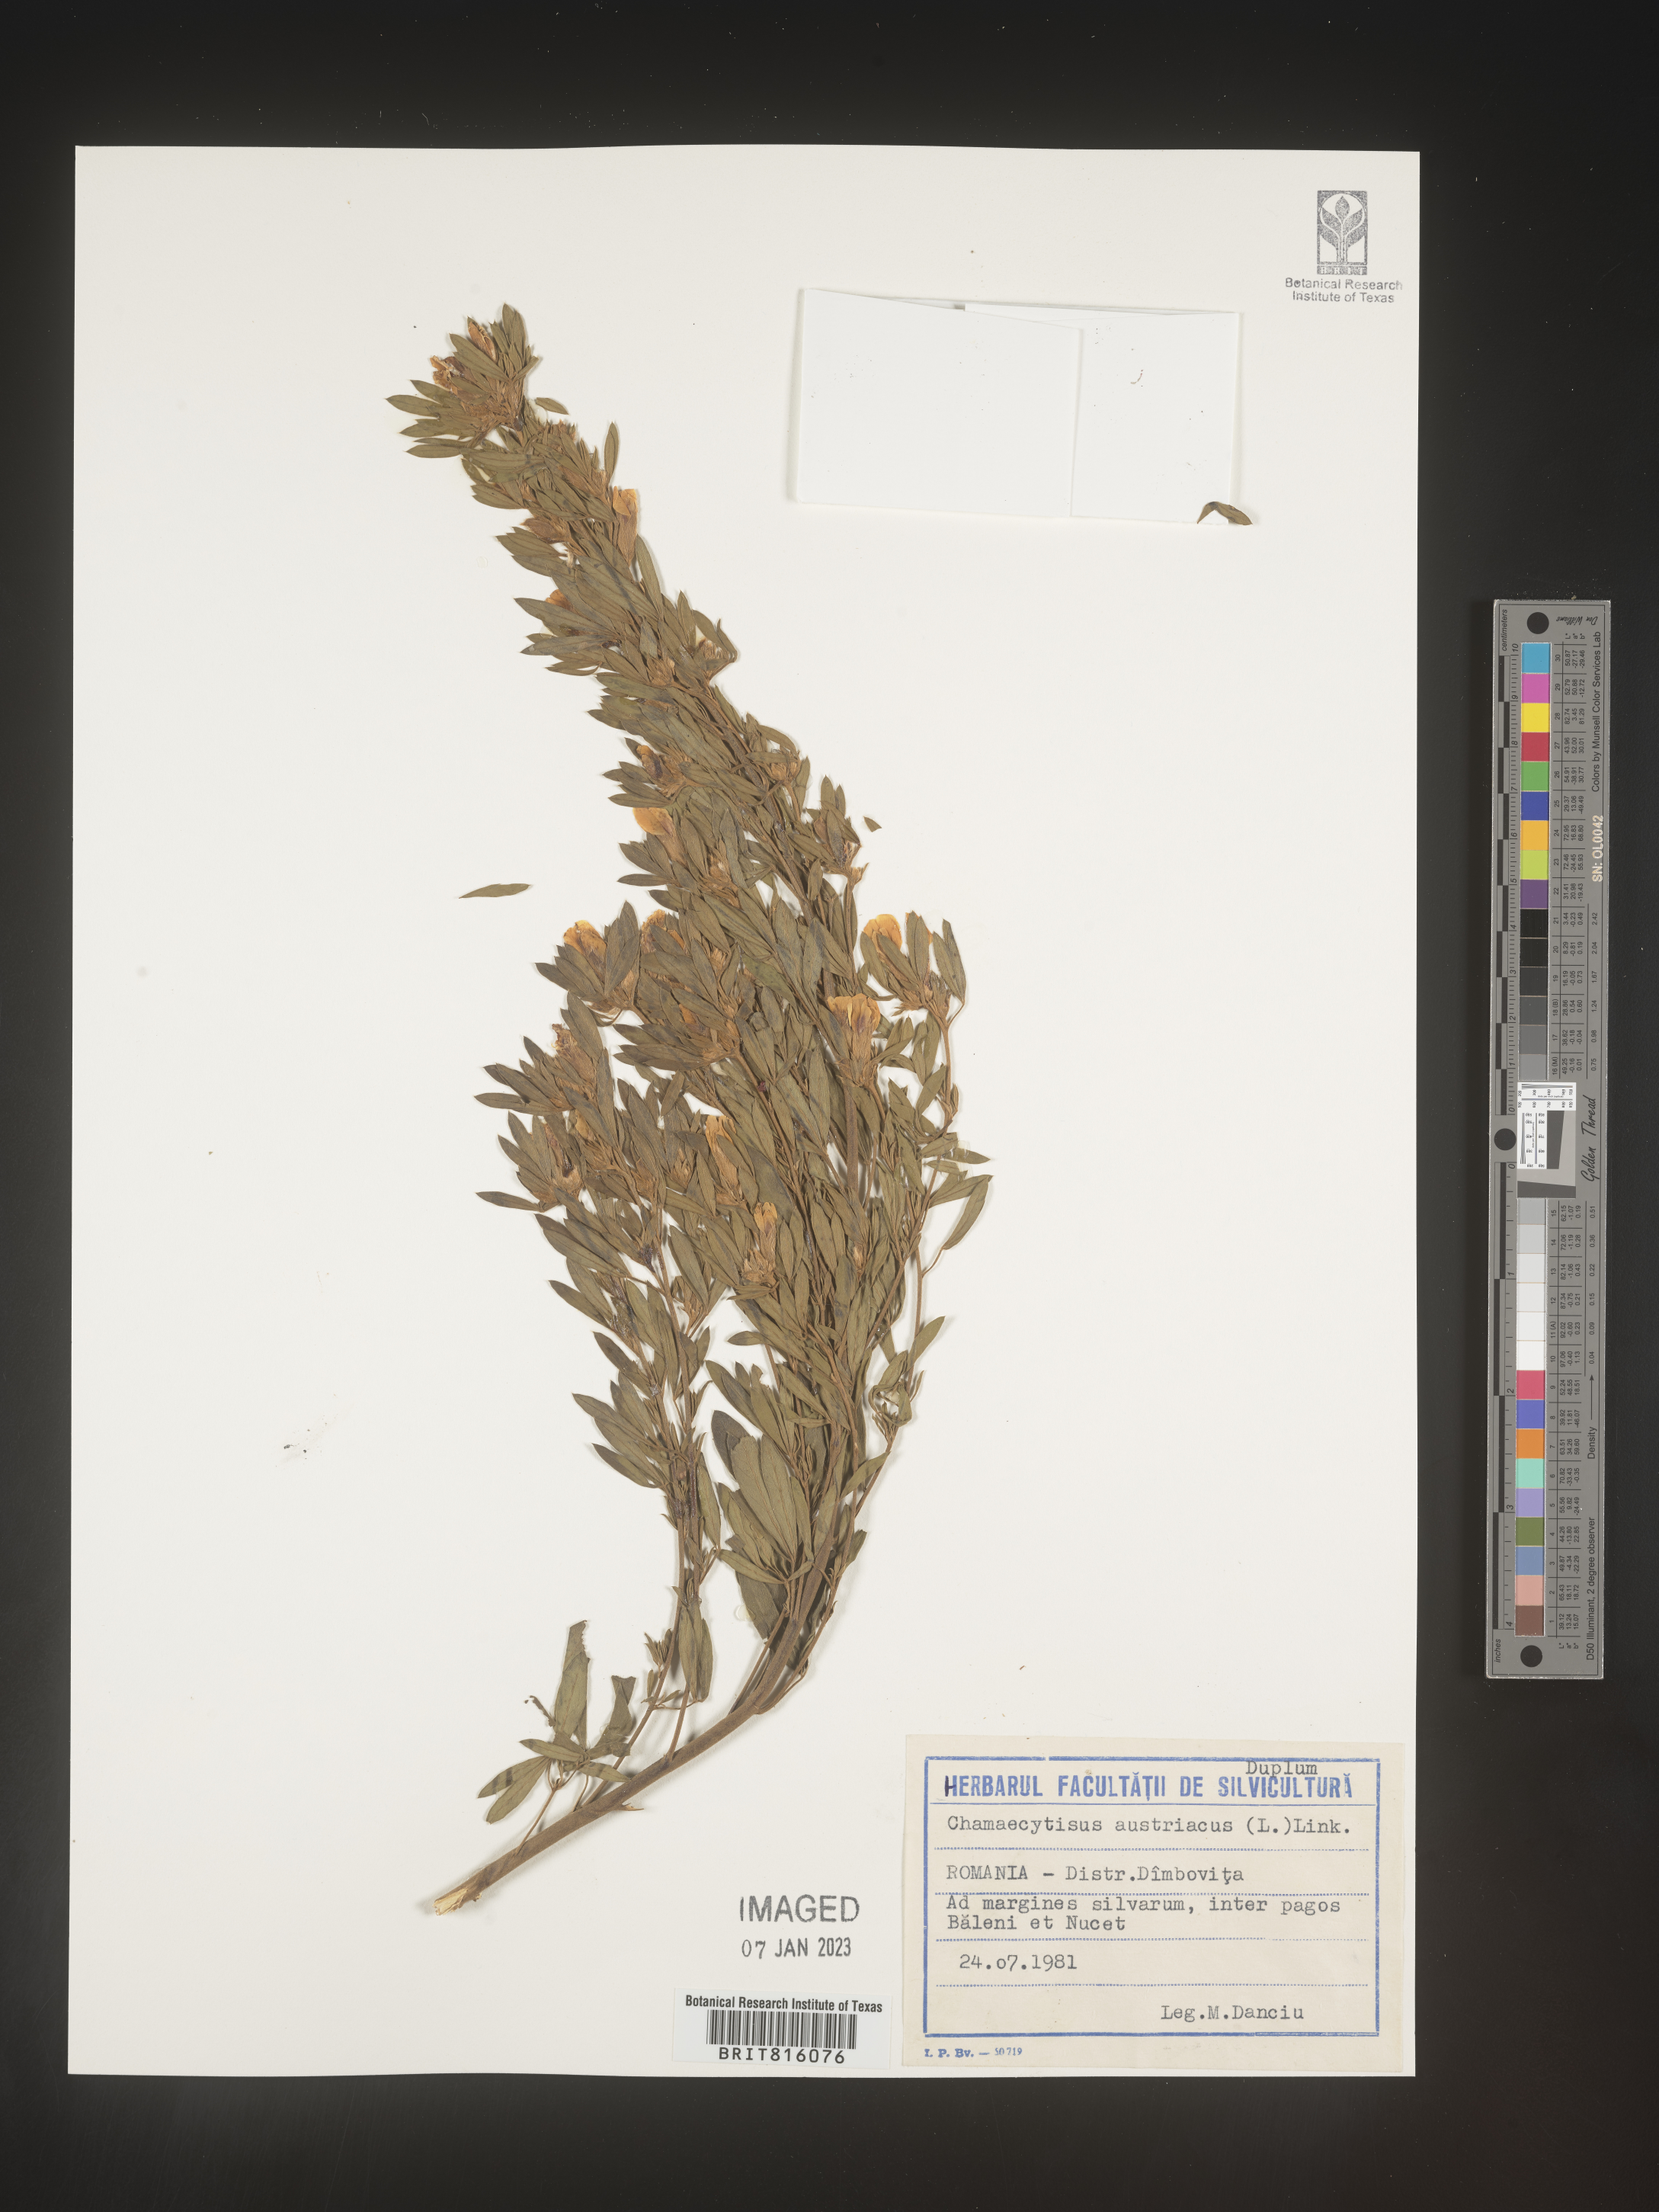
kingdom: Plantae
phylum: Tracheophyta
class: Magnoliopsida
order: Fabales
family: Fabaceae
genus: Chamaecytisus
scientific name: Chamaecytisus
